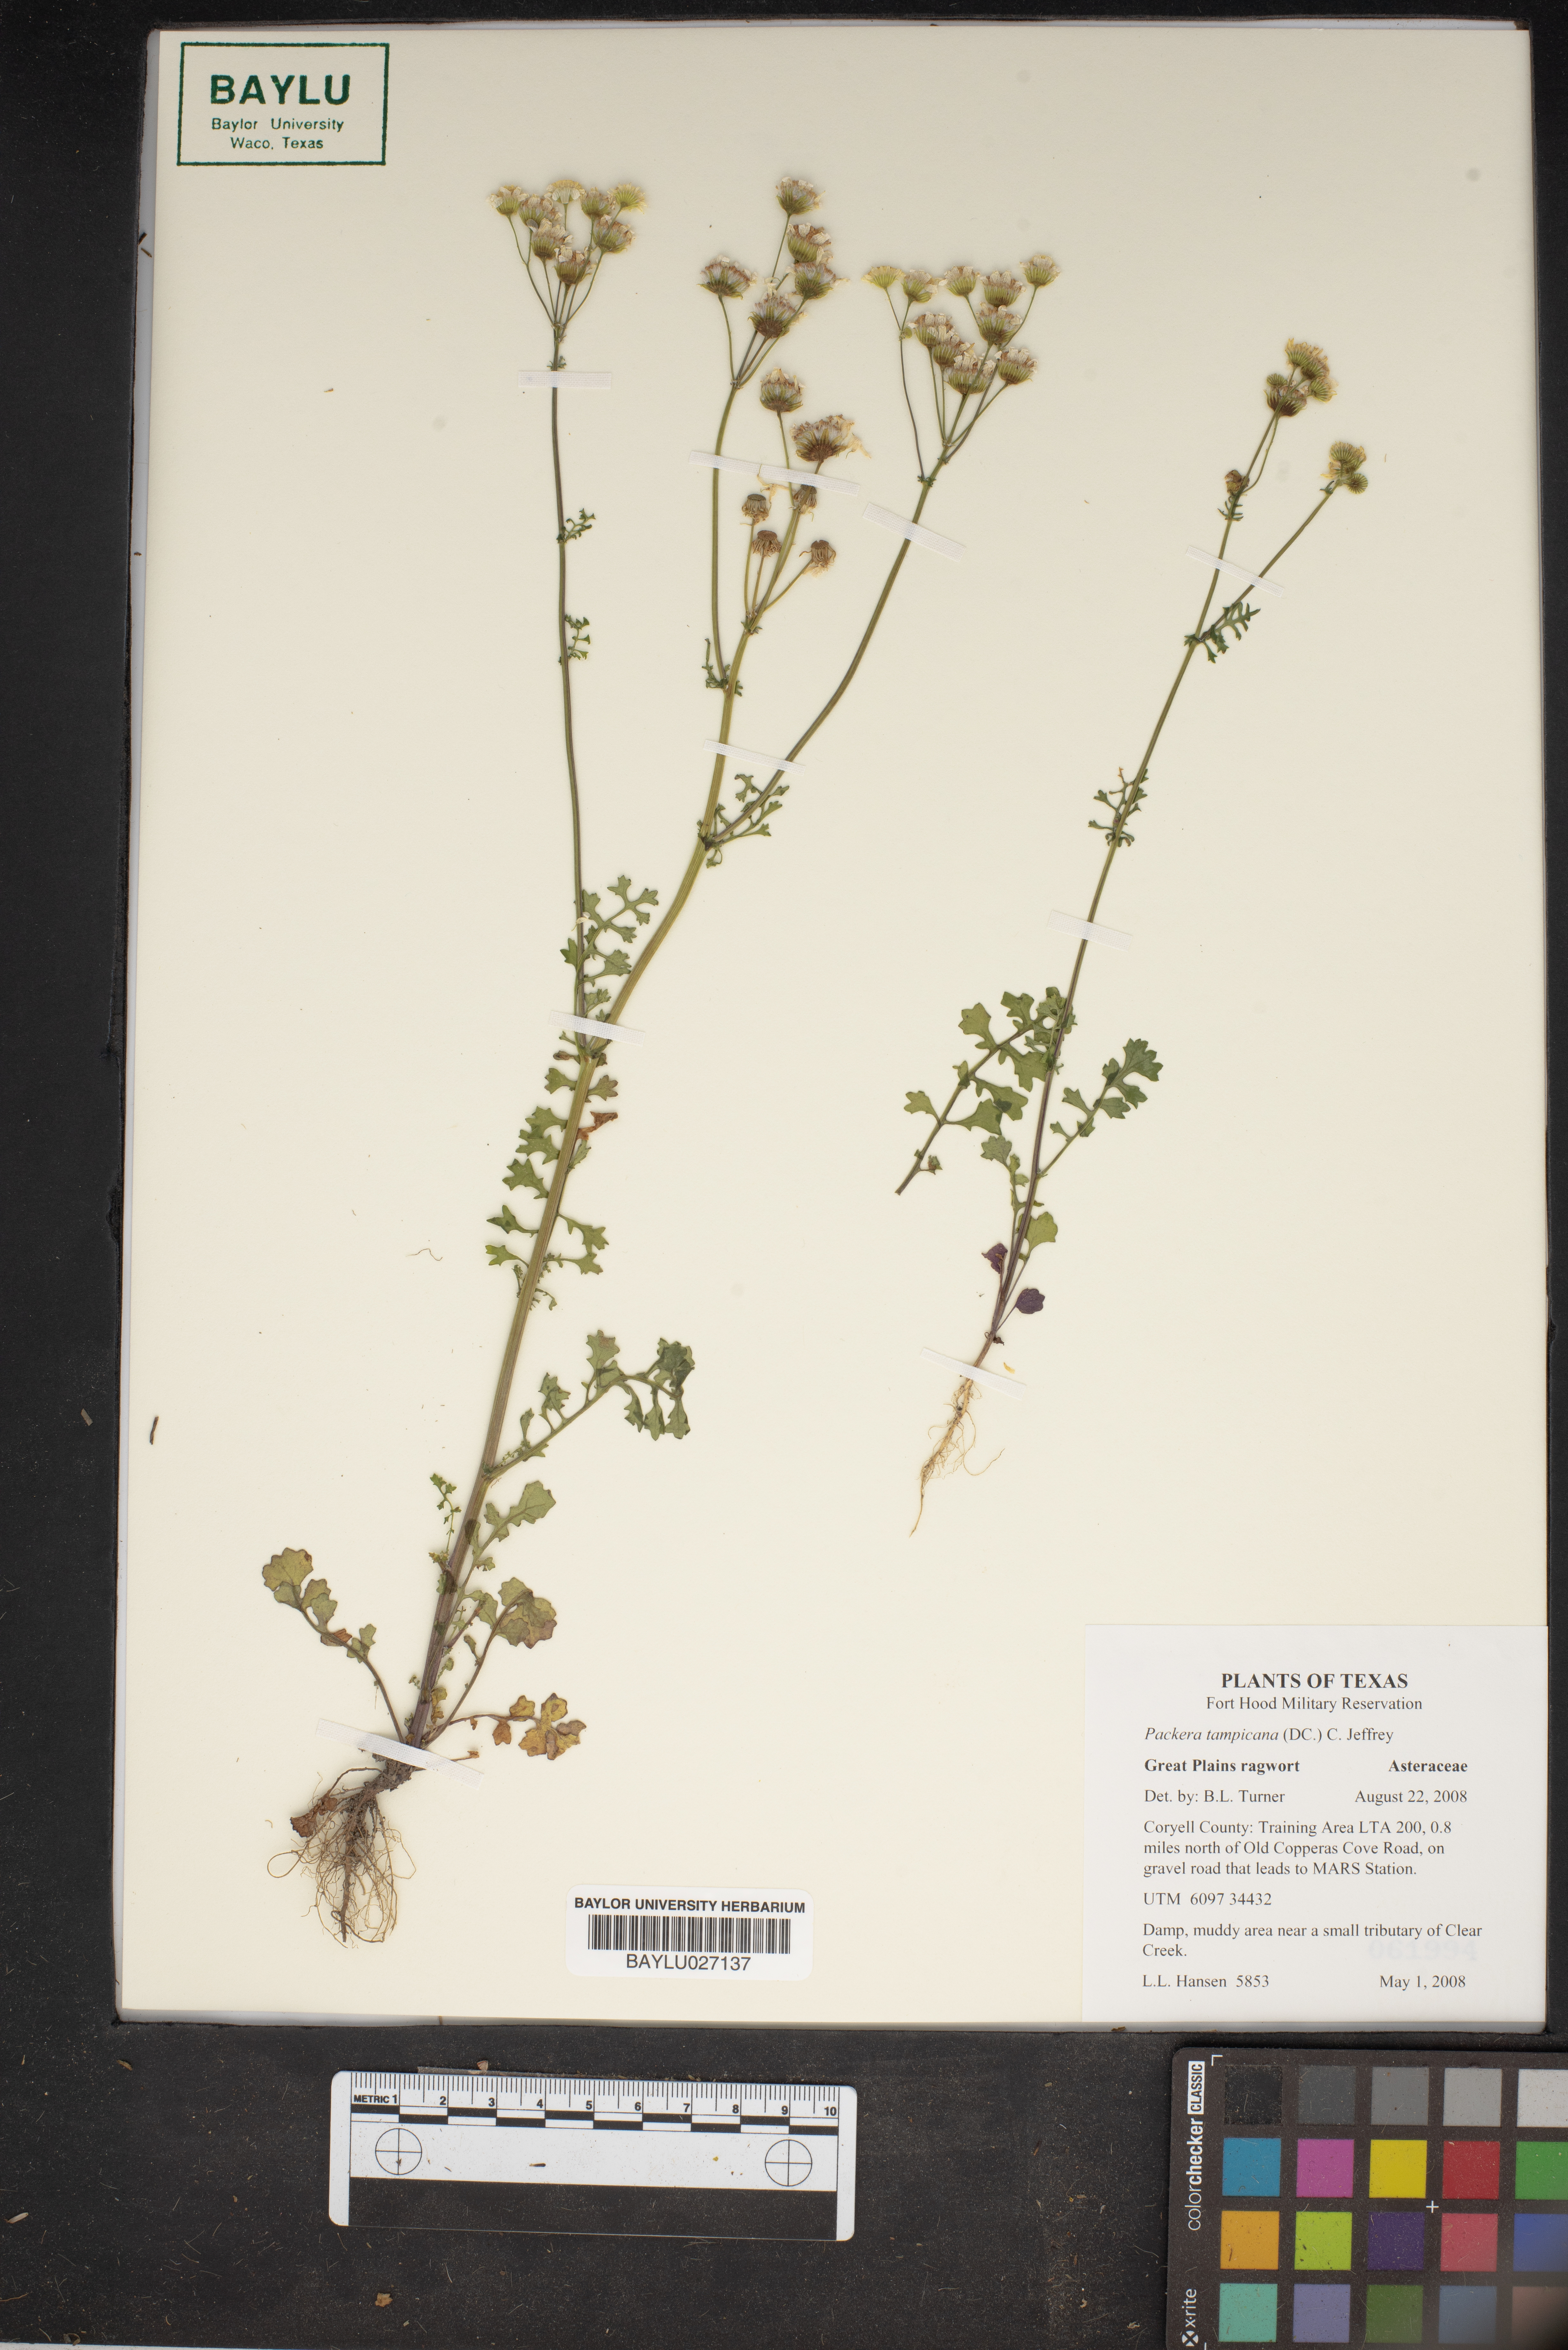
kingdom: Plantae
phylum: Tracheophyta
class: Magnoliopsida
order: Asterales
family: Asteraceae
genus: Packera
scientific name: Packera tampicana
